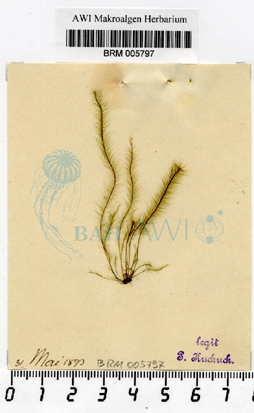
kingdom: Chromista
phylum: Ochrophyta
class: Phaeophyceae
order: Tilopteridales
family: Halosiphonaceae
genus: Halosiphon
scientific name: Halosiphon tomentosus
